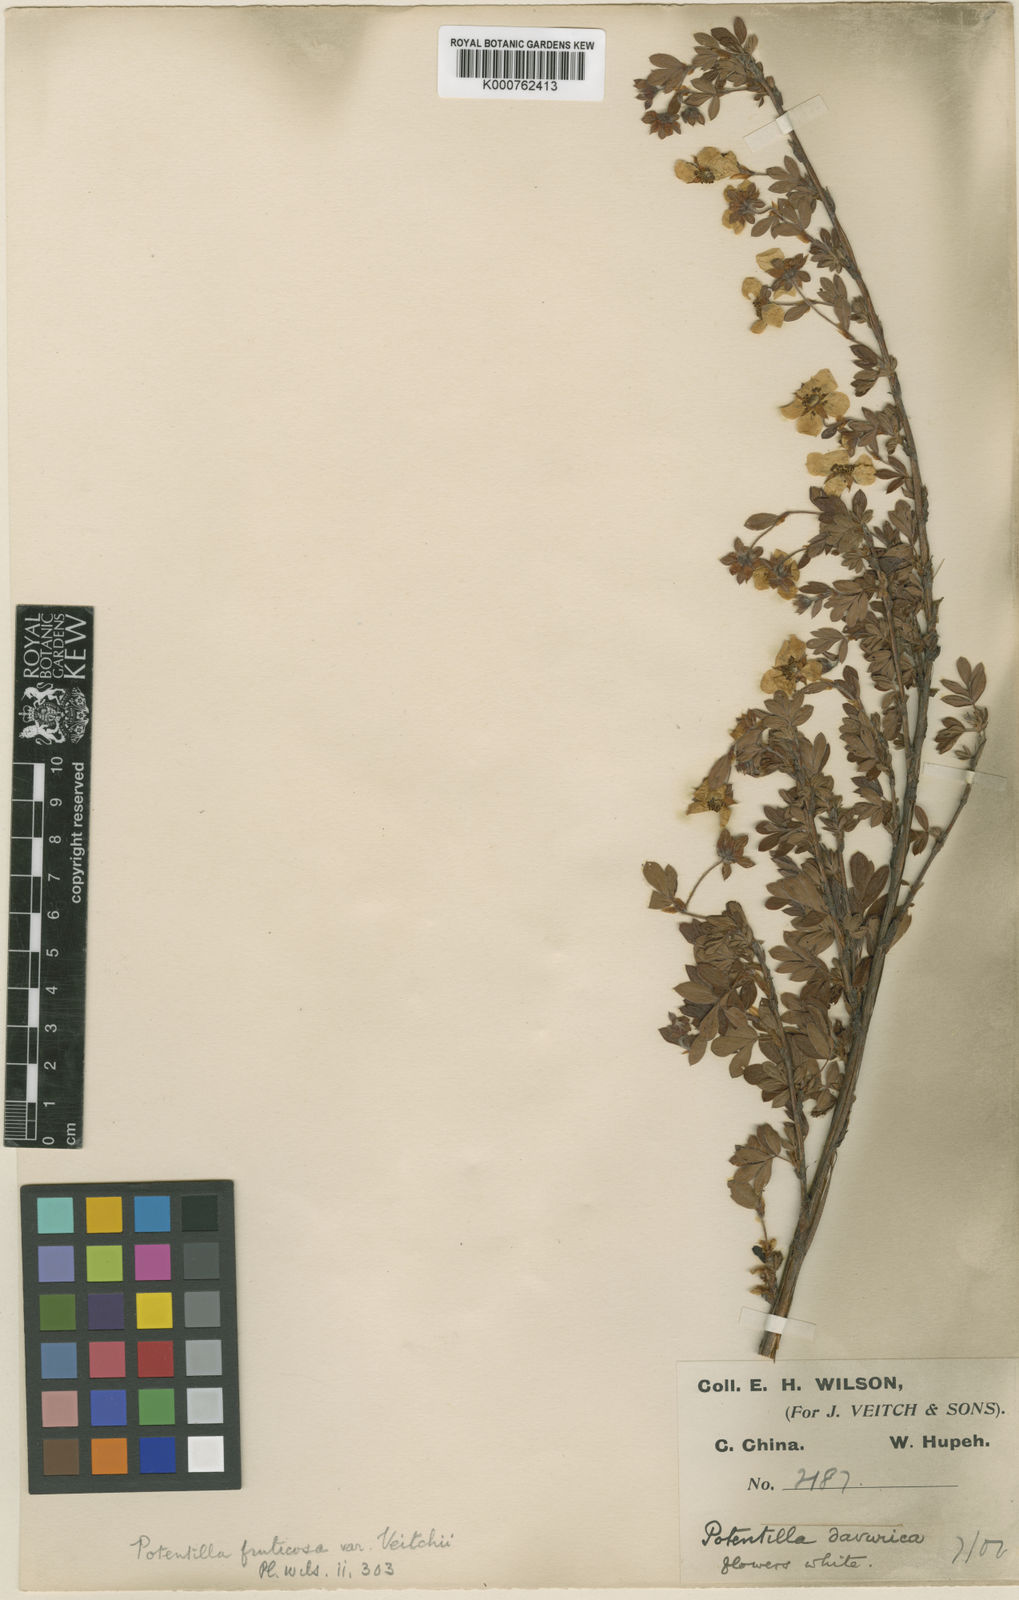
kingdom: Plantae
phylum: Tracheophyta
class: Magnoliopsida
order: Rosales
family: Rosaceae
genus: Dasiphora
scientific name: Dasiphora fruticosa
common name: Shrubby cinquefoil
